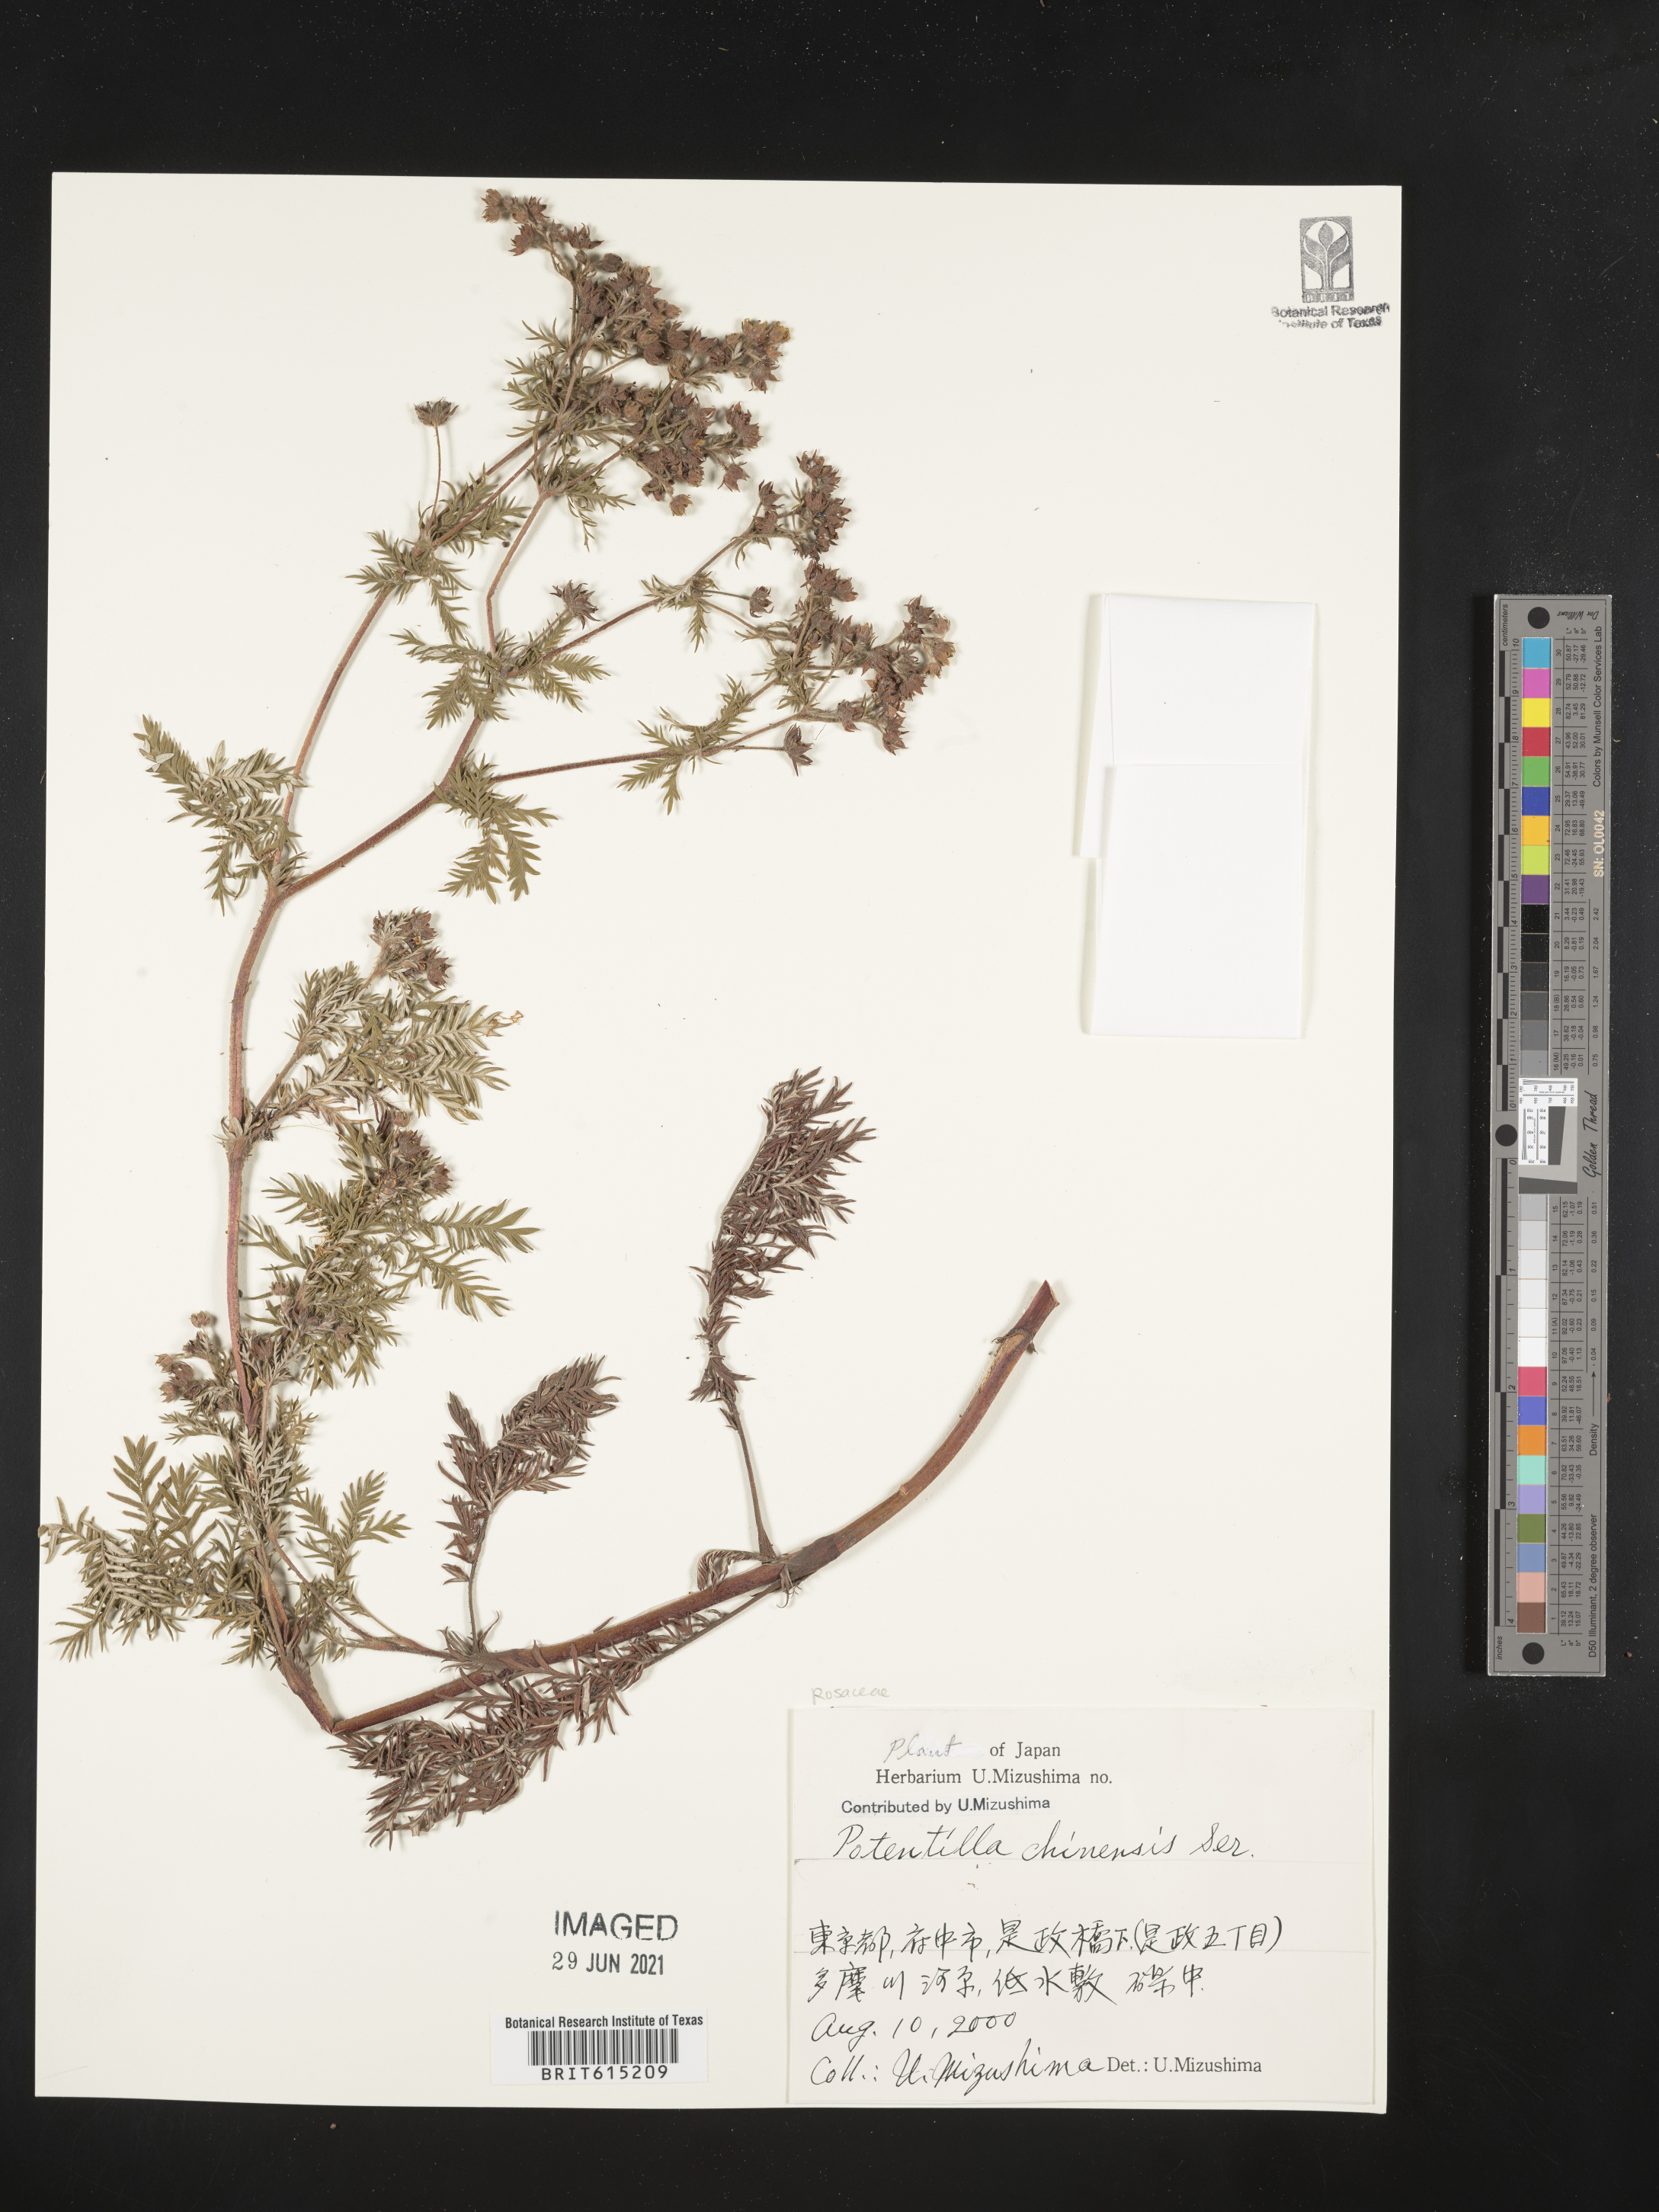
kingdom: Plantae
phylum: Tracheophyta
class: Magnoliopsida
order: Rosales
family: Rosaceae
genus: Potentilla
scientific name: Potentilla chinensis
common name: Chinese cinquefoil
